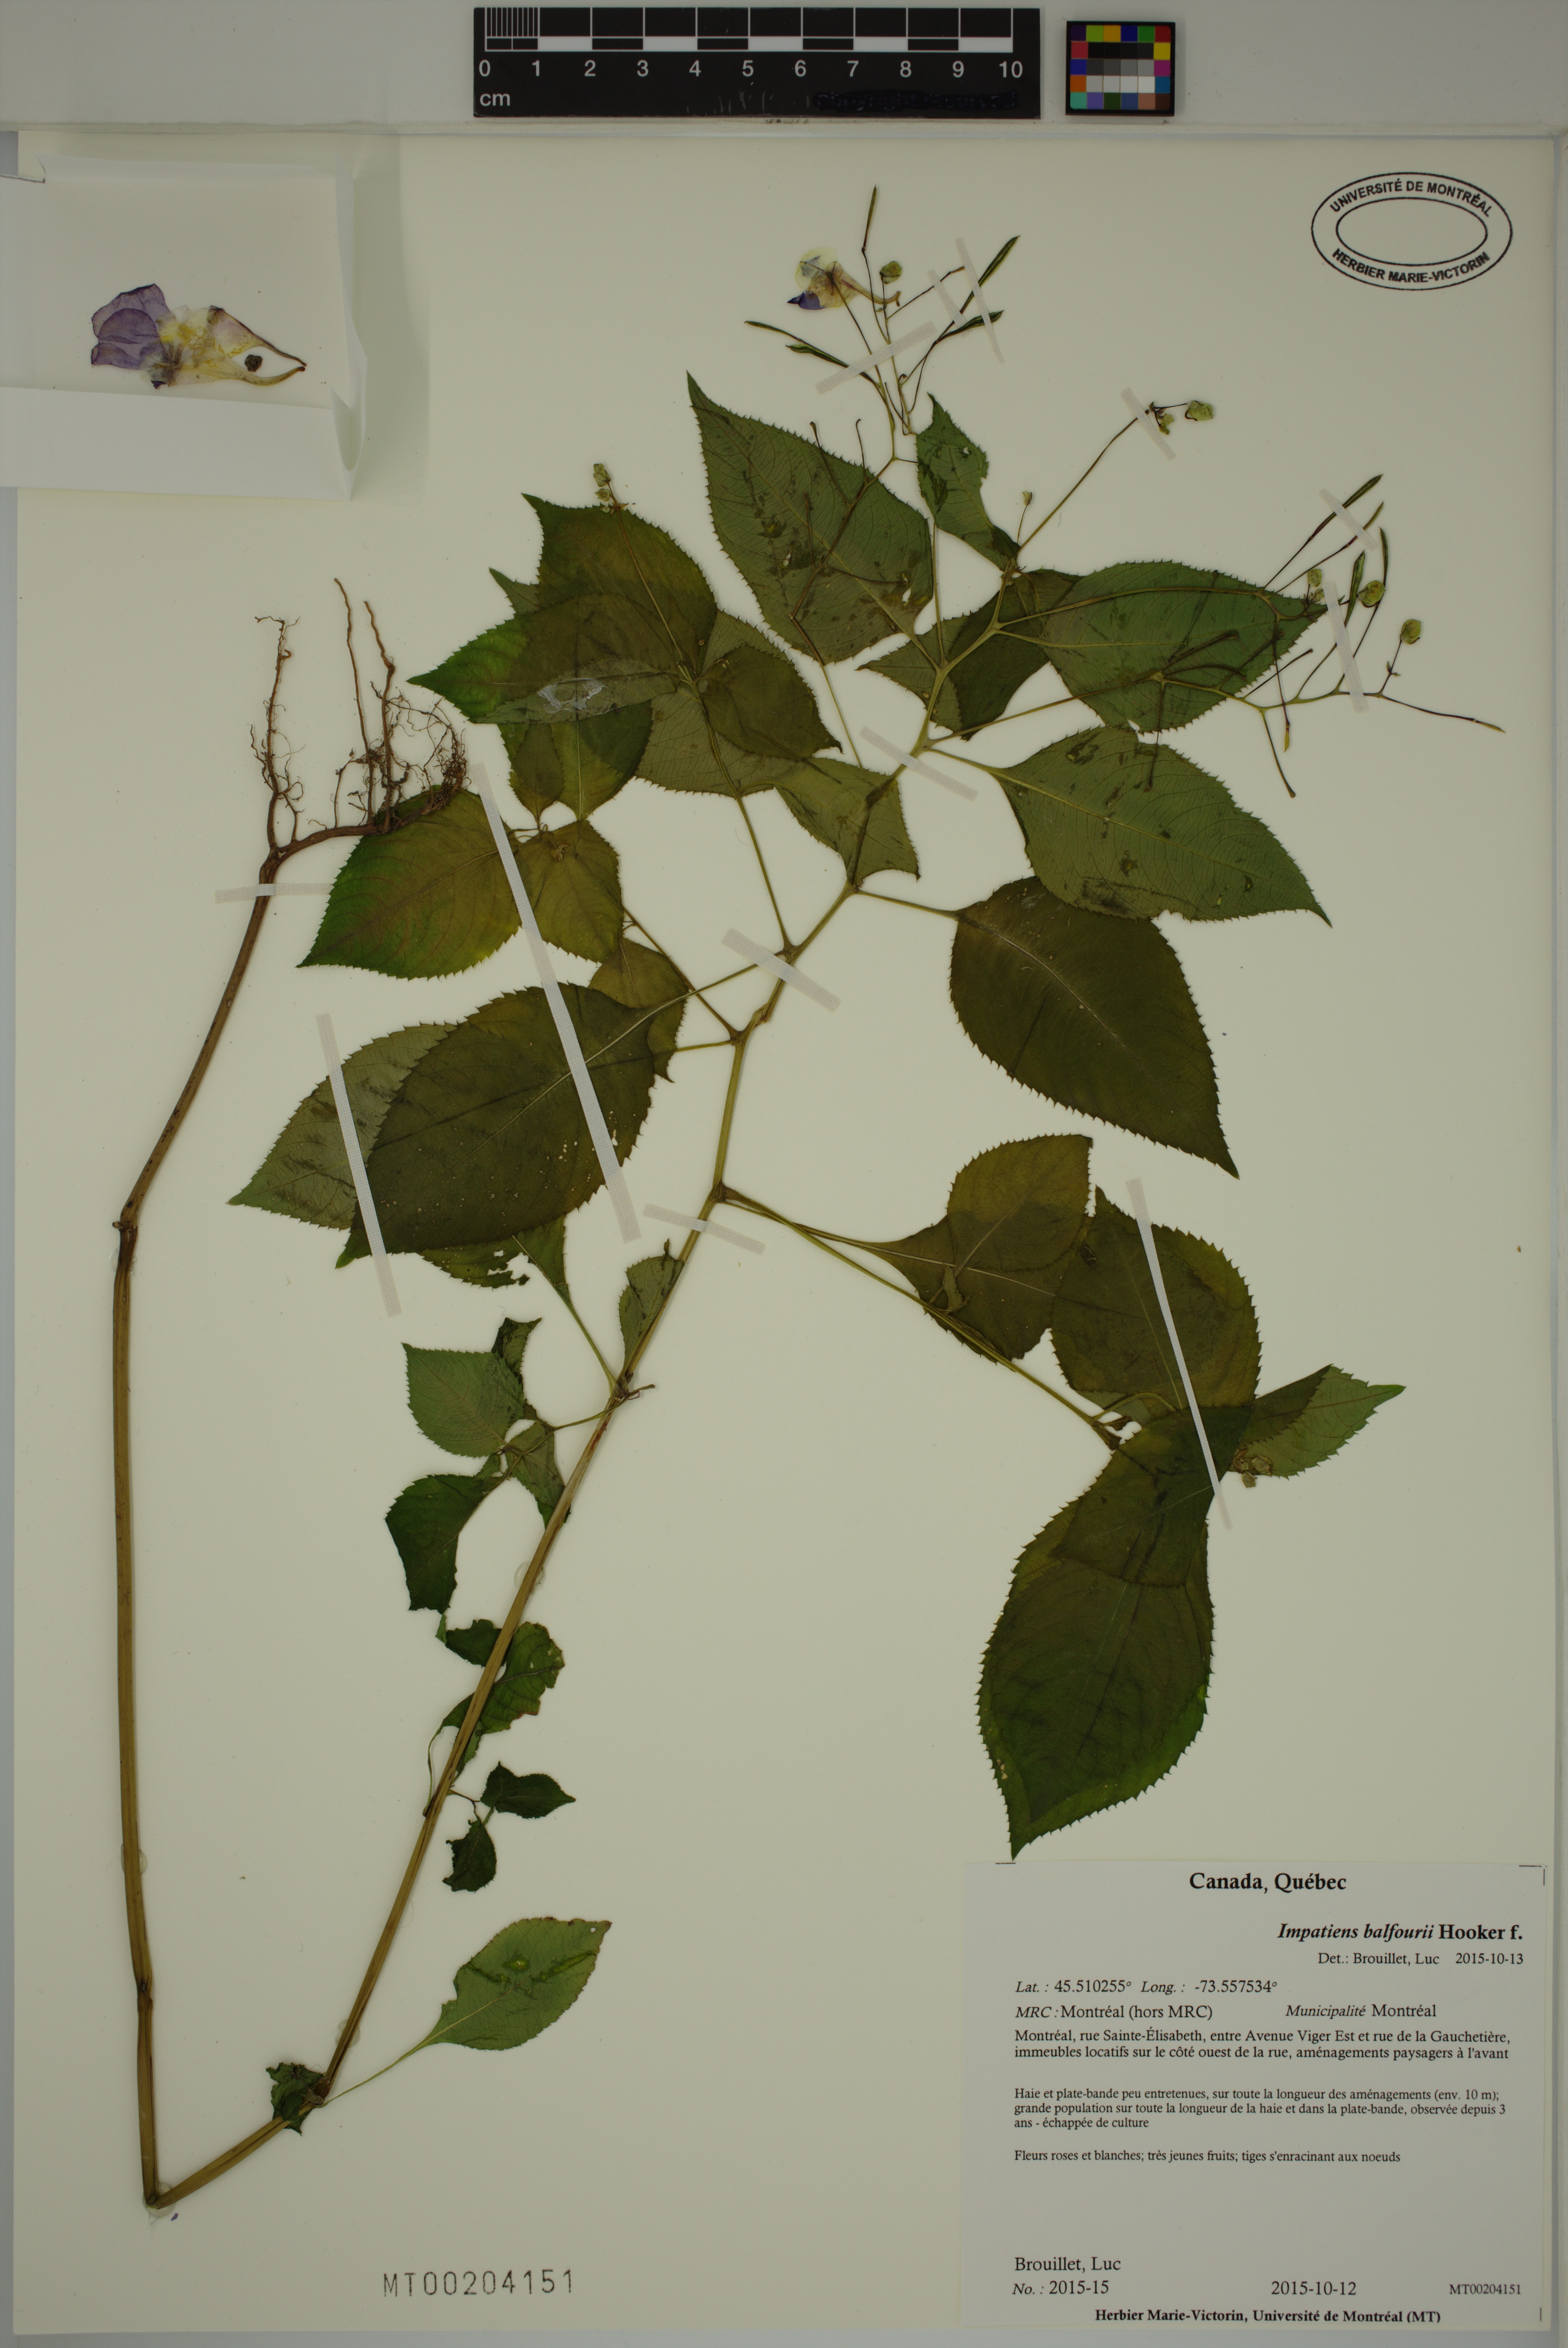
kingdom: Plantae
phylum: Tracheophyta
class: Magnoliopsida
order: Ericales
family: Balsaminaceae
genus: Impatiens
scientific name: Impatiens balfourii
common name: Balfour's touch-me-not
